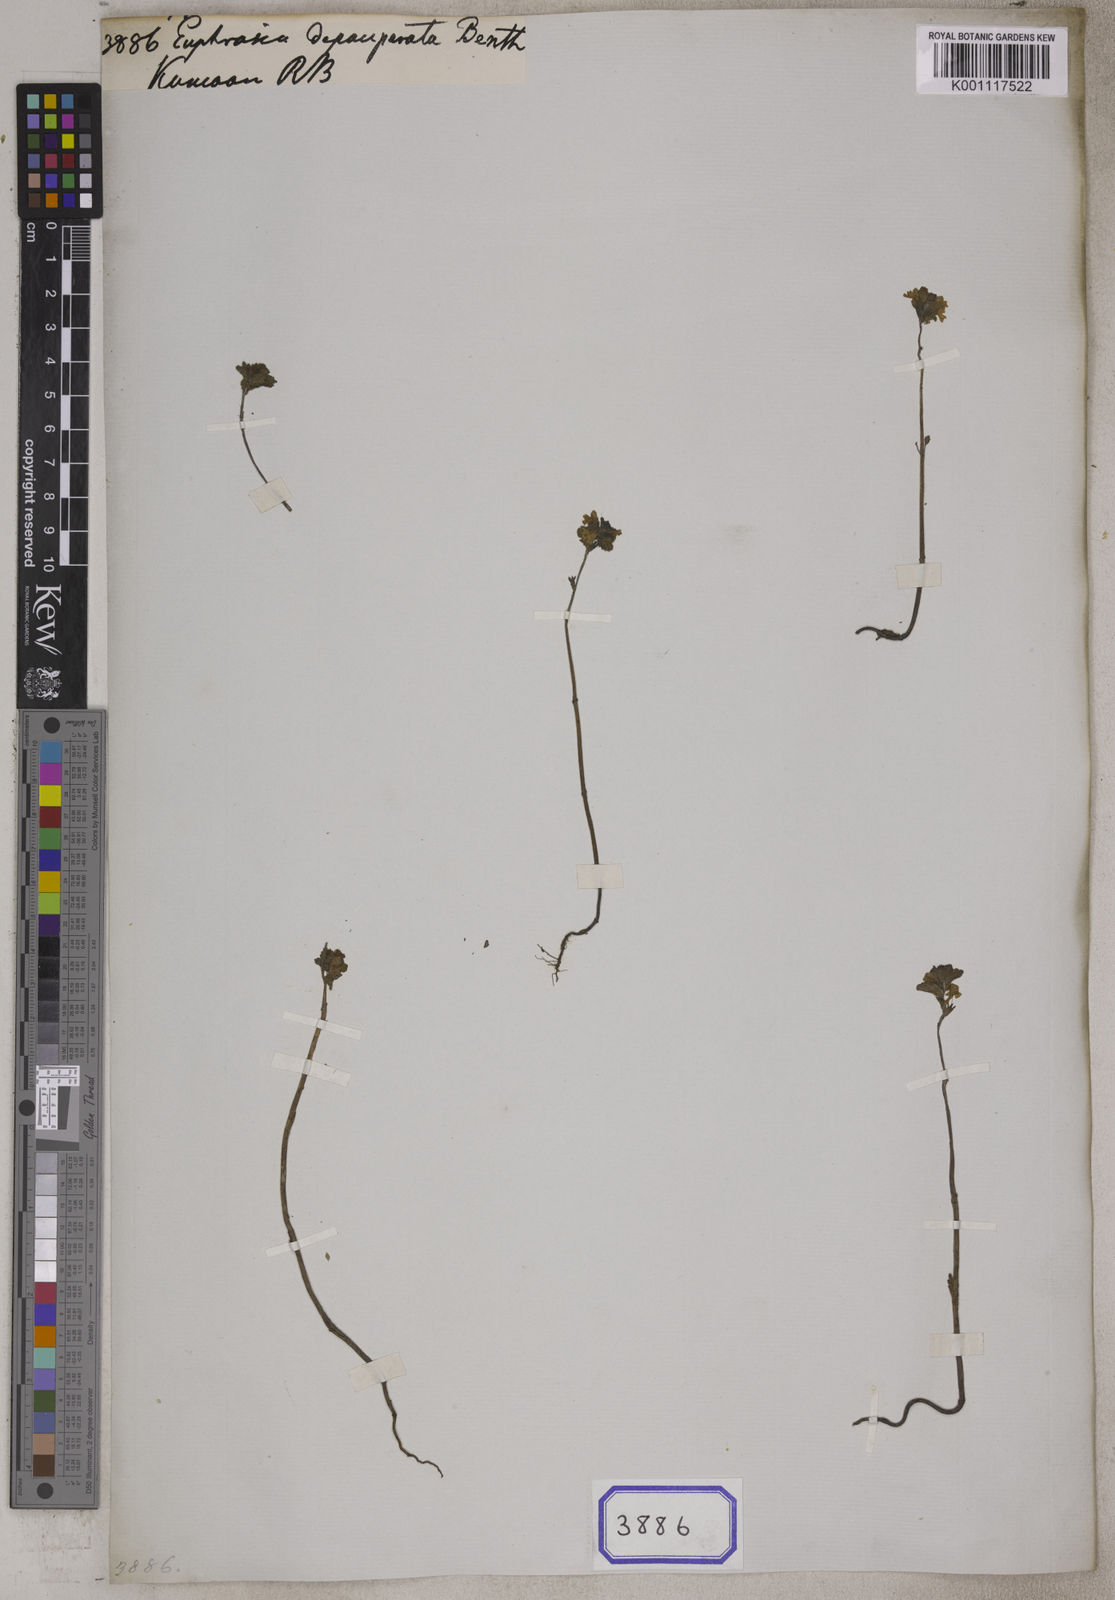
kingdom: Plantae
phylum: Tracheophyta
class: Magnoliopsida
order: Lamiales
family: Orobanchaceae
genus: Euphrasia
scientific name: Euphrasia
